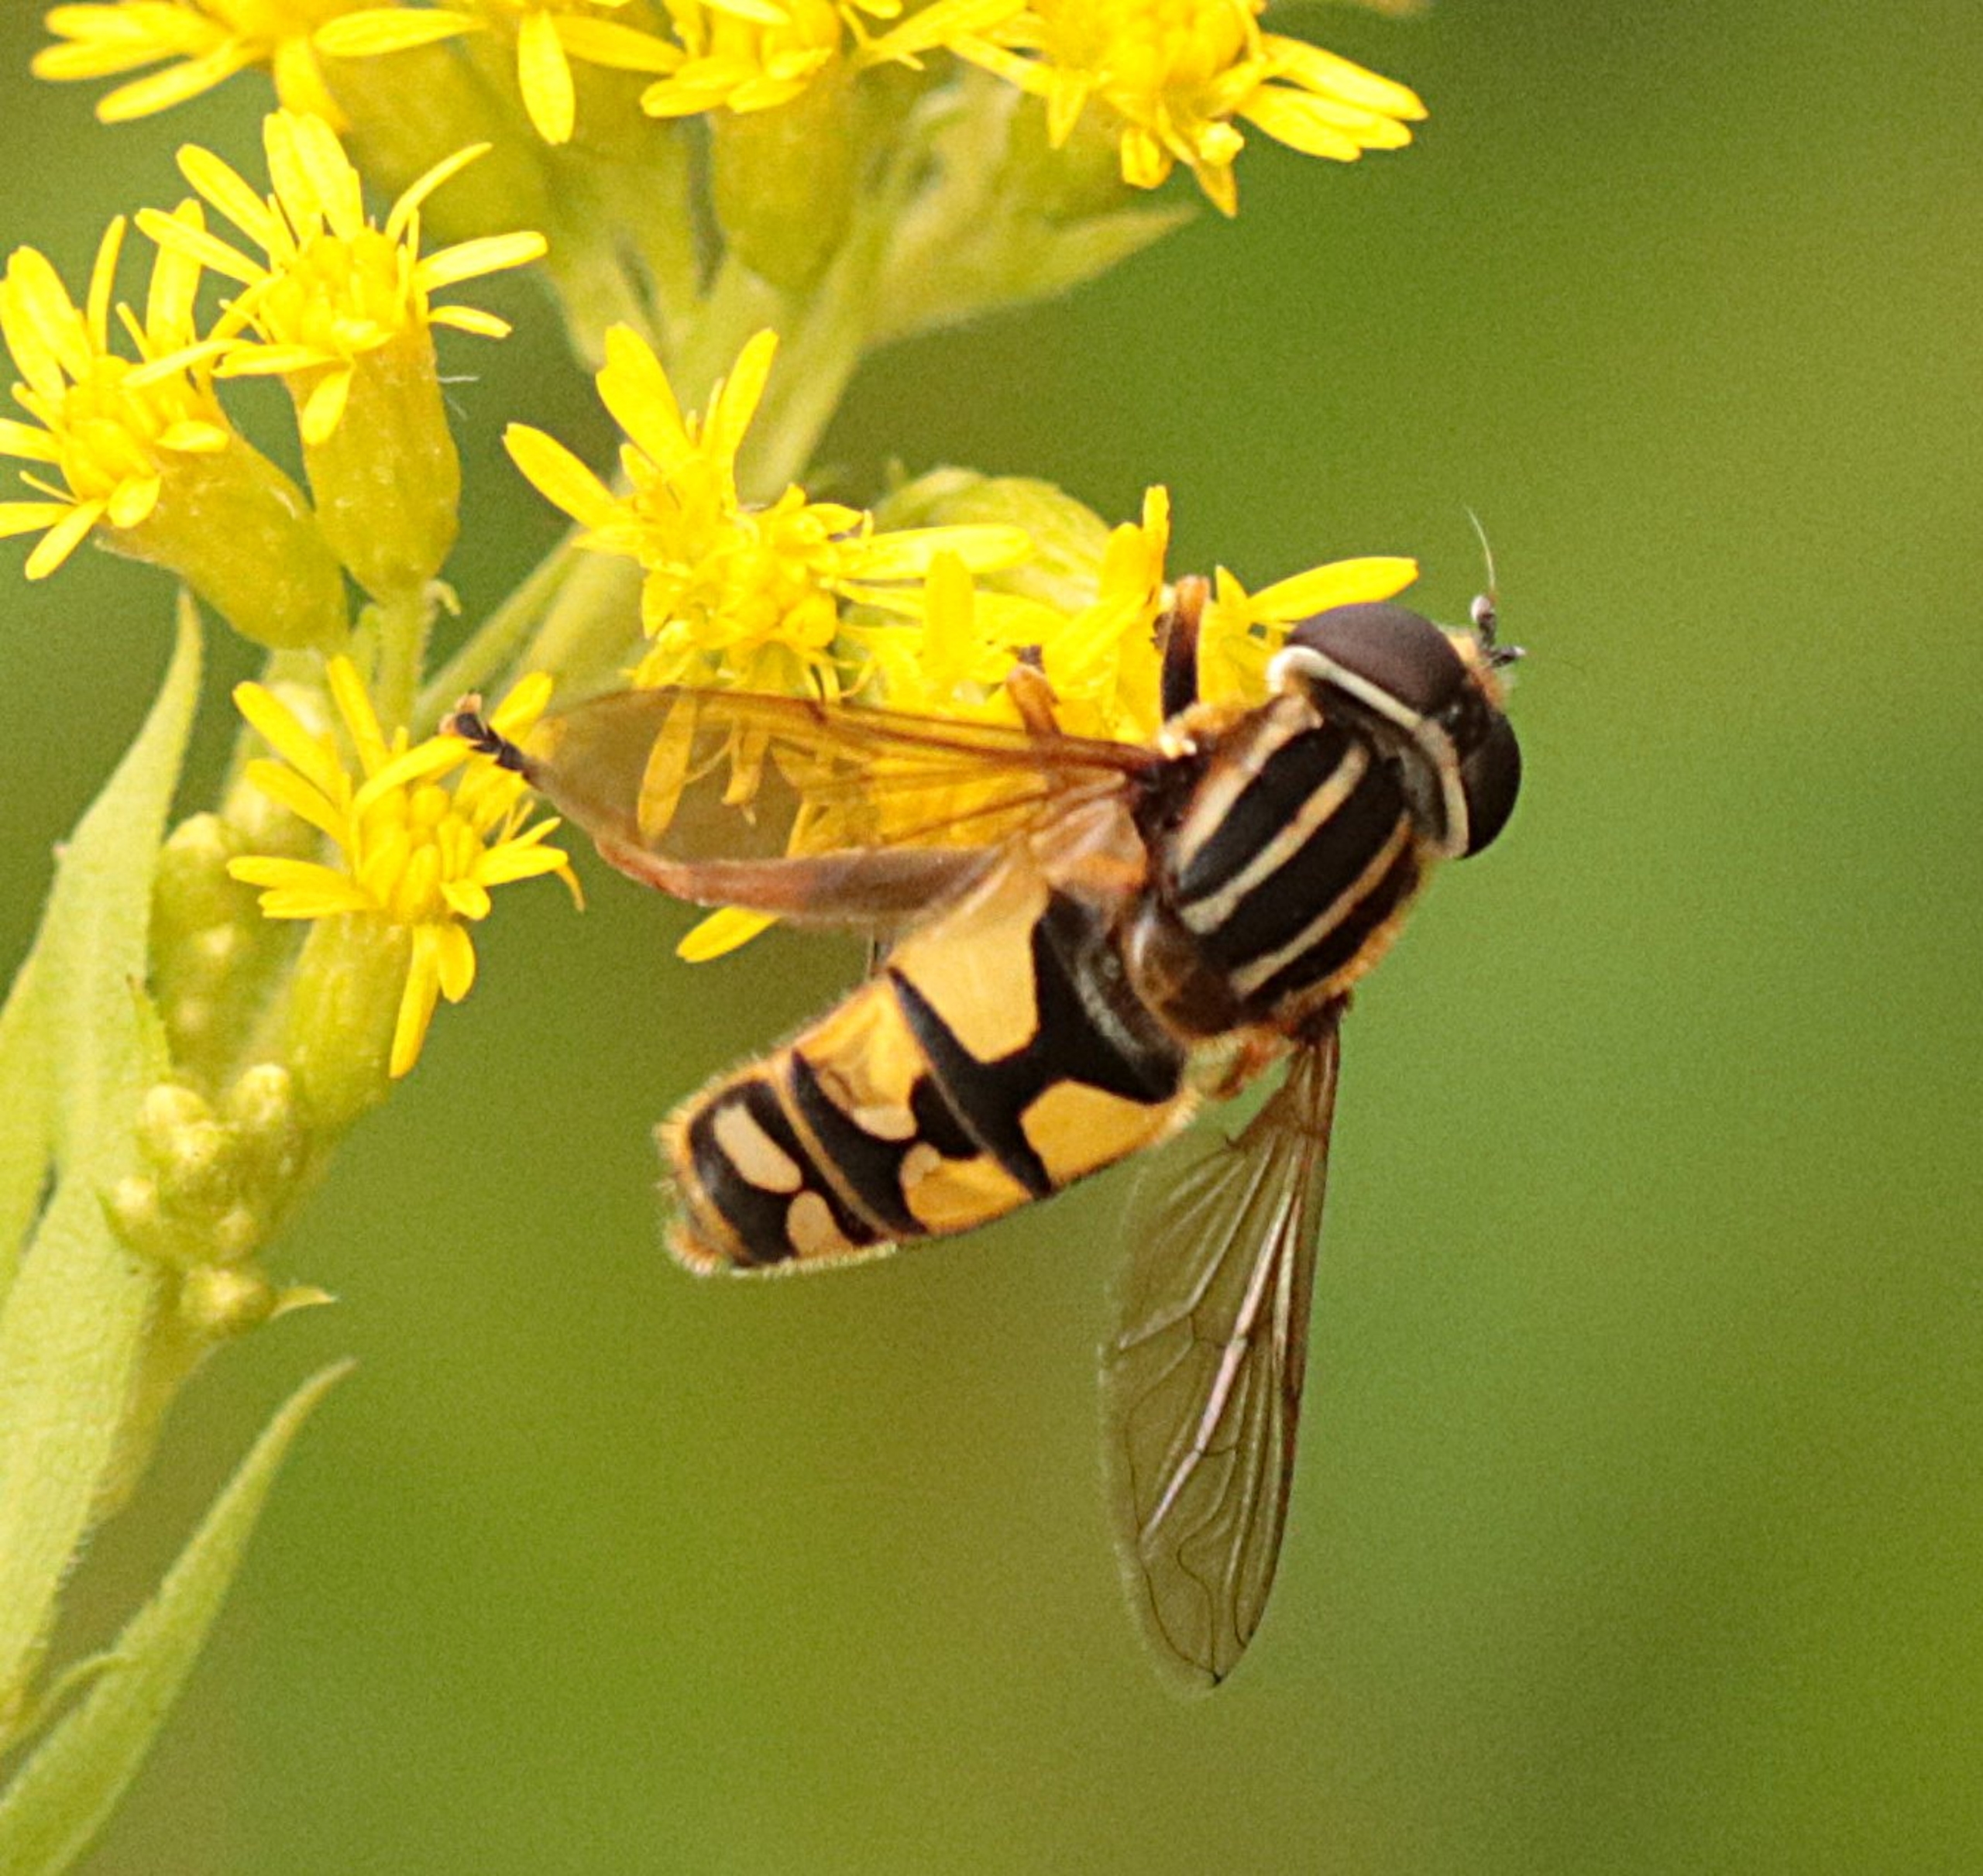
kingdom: Animalia
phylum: Arthropoda
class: Insecta
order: Diptera
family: Syrphidae
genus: Helophilus
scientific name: Helophilus pendulus
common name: Almindelig sumpsvirreflue
